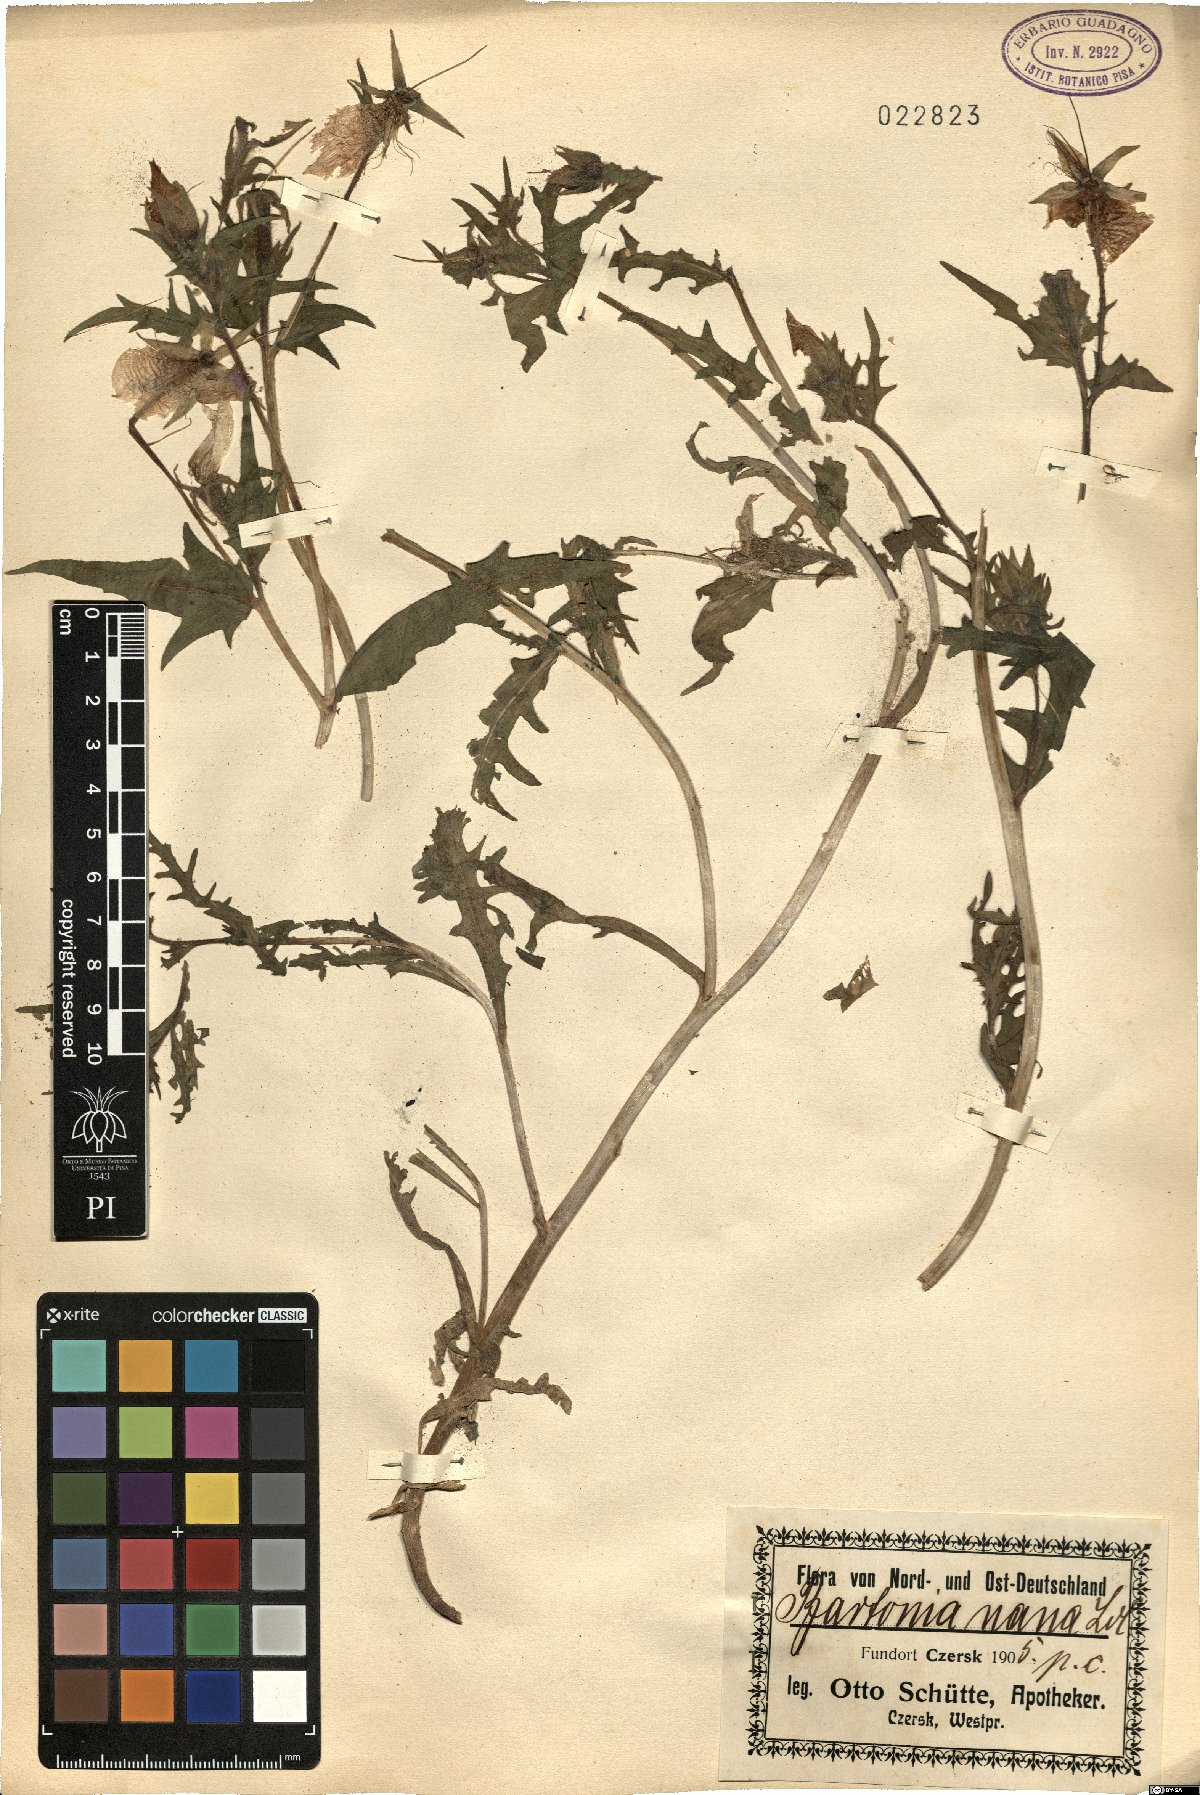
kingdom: Plantae
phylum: Tracheophyta
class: Magnoliopsida
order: Gentianales
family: Gentianaceae
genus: Bartonia
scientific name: Bartonia
